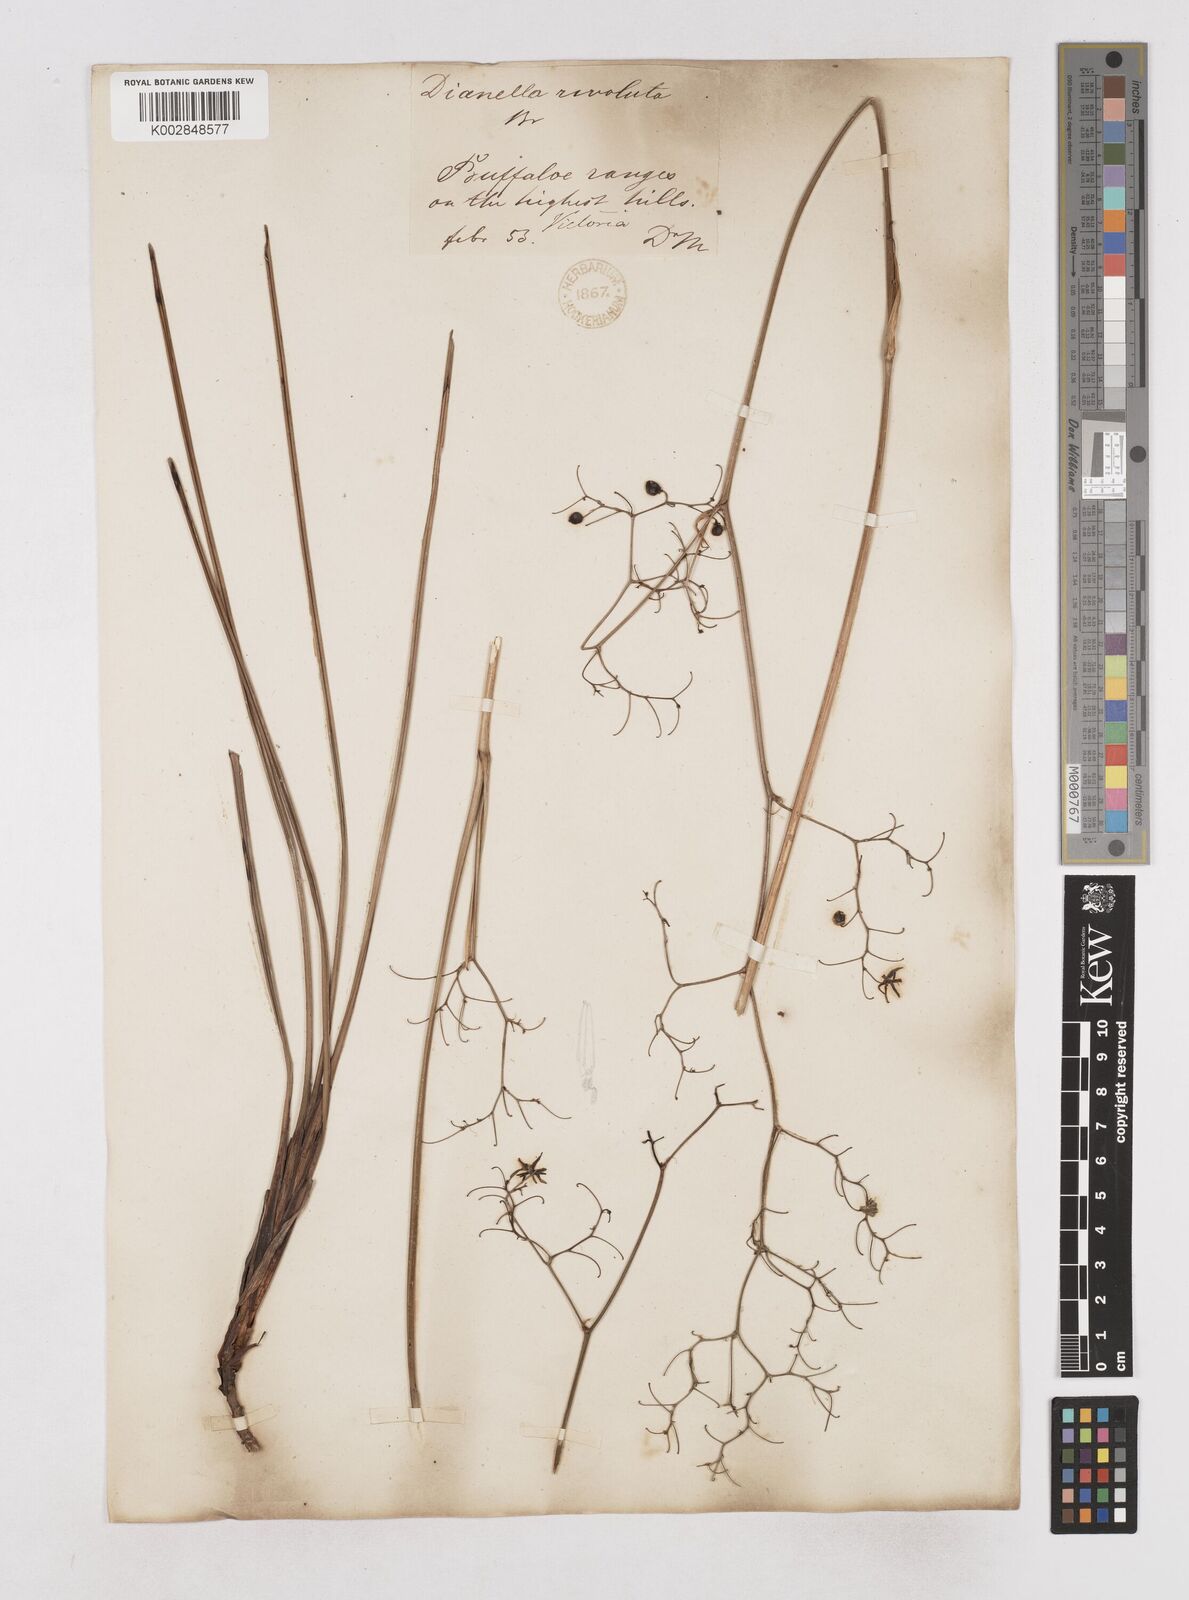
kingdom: Plantae
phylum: Tracheophyta
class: Liliopsida
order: Asparagales
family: Asphodelaceae
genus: Dianella
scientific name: Dianella revoluta
